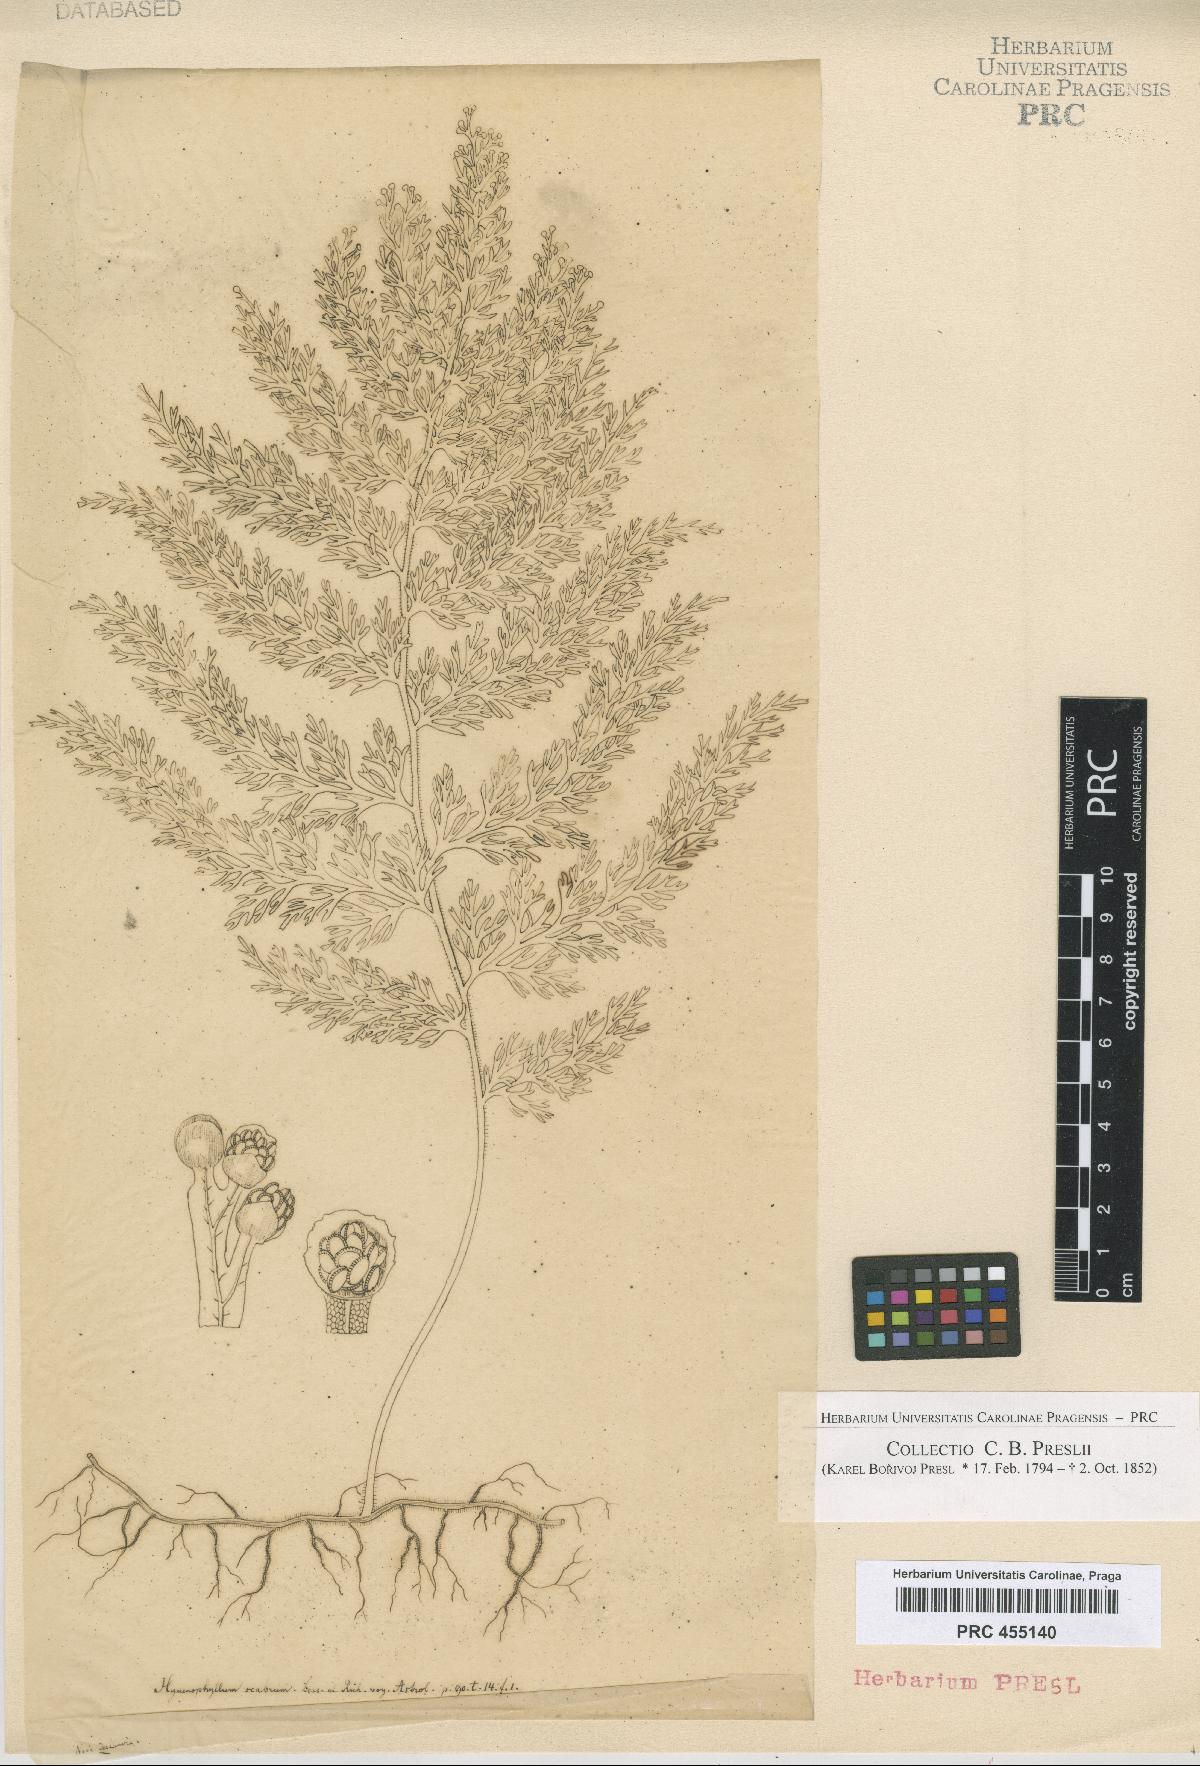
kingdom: Plantae
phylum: Tracheophyta
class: Polypodiopsida
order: Hymenophyllales
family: Hymenophyllaceae
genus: Hymenophyllum
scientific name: Hymenophyllum
